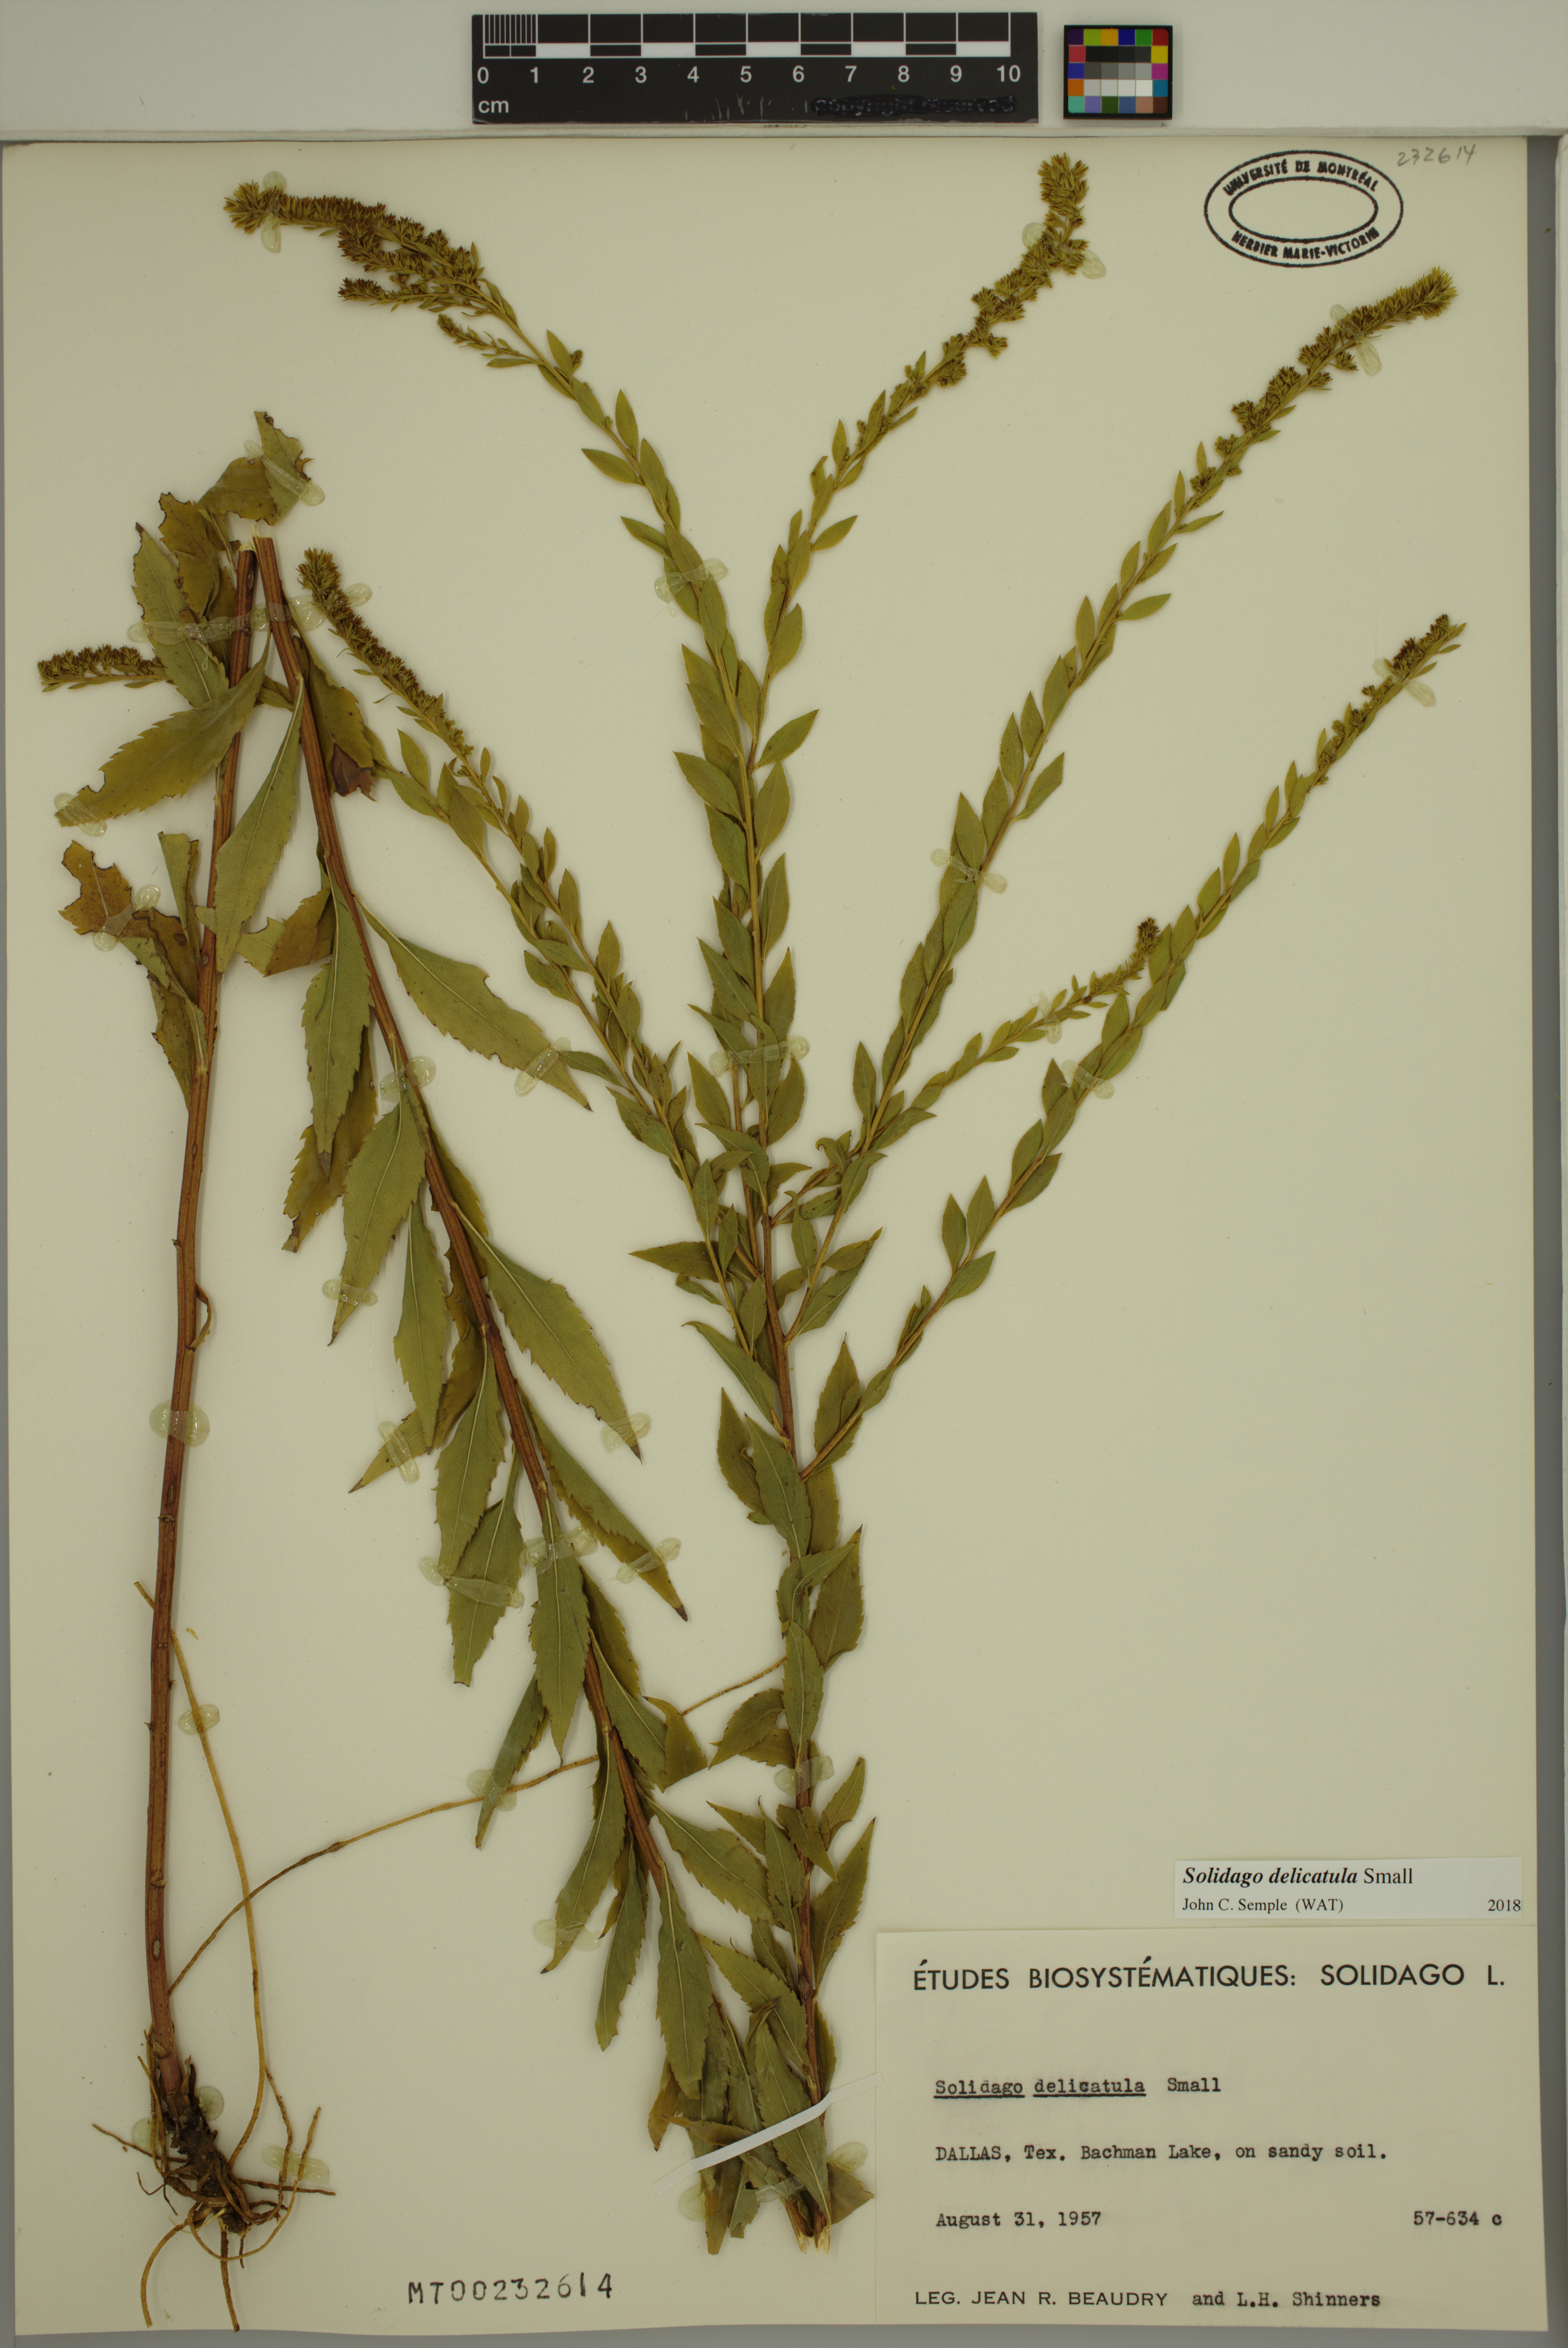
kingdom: Plantae
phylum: Tracheophyta
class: Magnoliopsida
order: Asterales
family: Asteraceae
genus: Solidago
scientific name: Solidago delicatula
